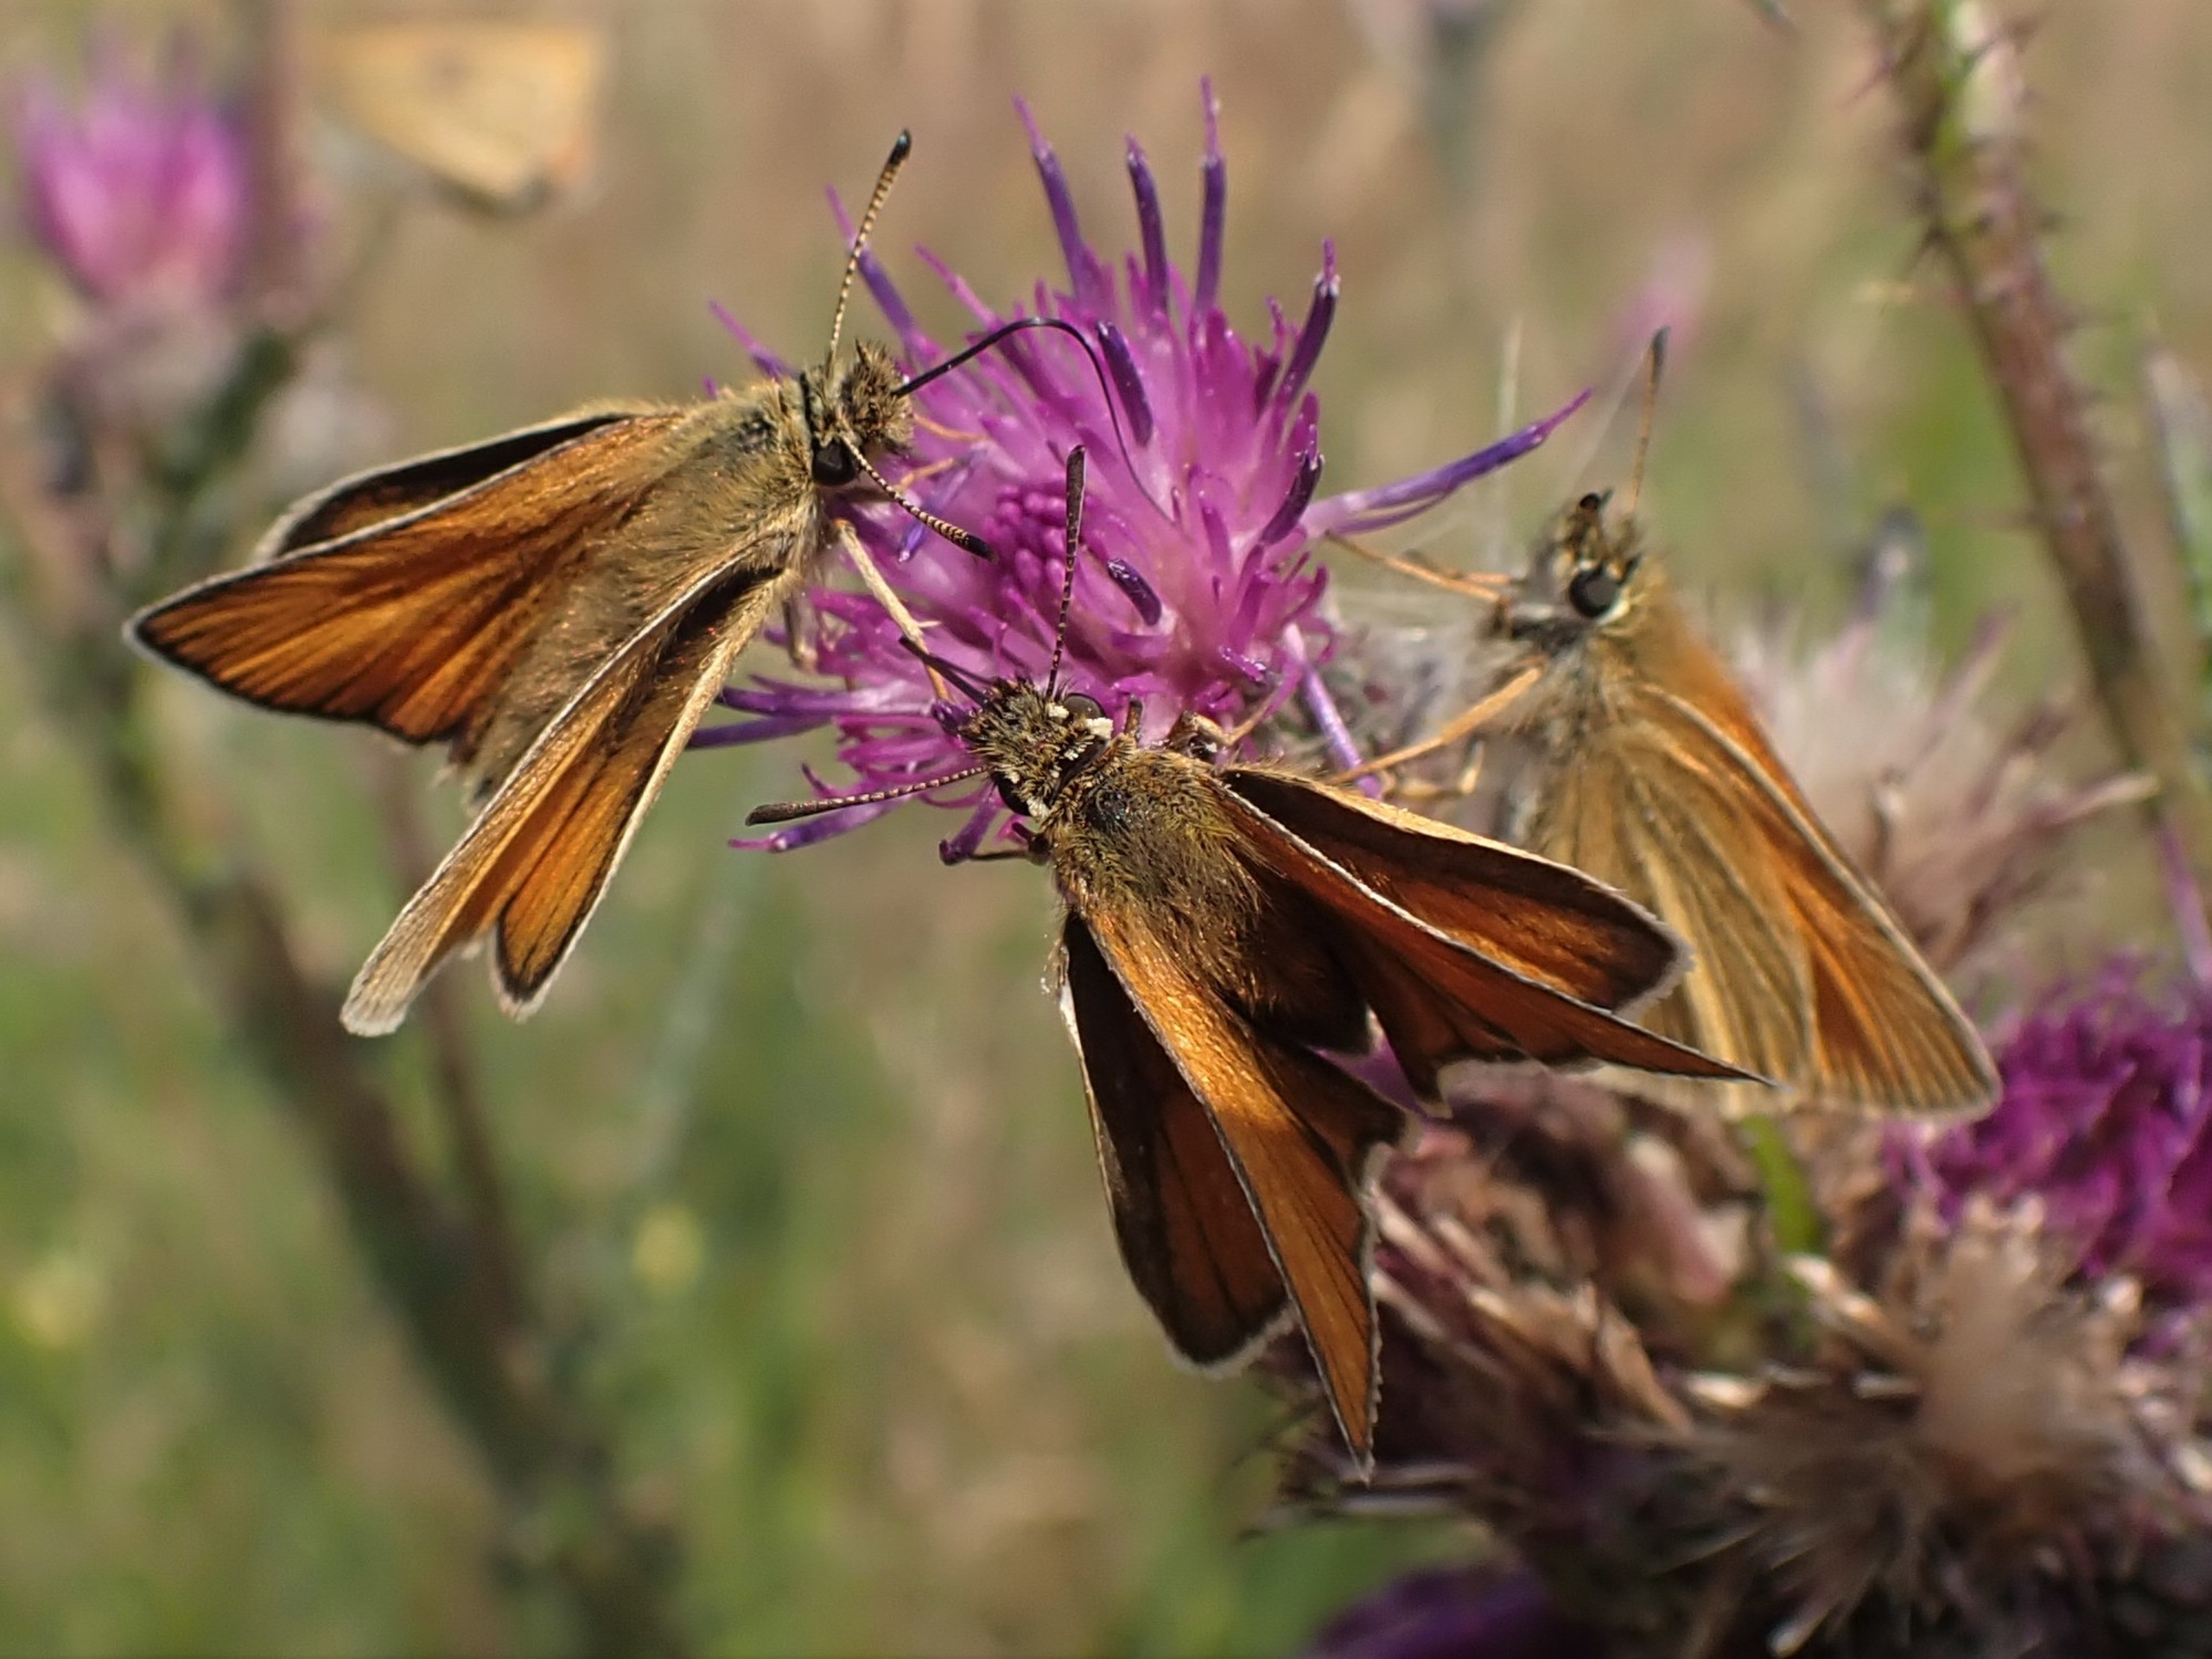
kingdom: Animalia
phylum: Arthropoda
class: Insecta
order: Lepidoptera
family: Hesperiidae
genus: Thymelicus
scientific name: Thymelicus lineola
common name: Stregbredpande
